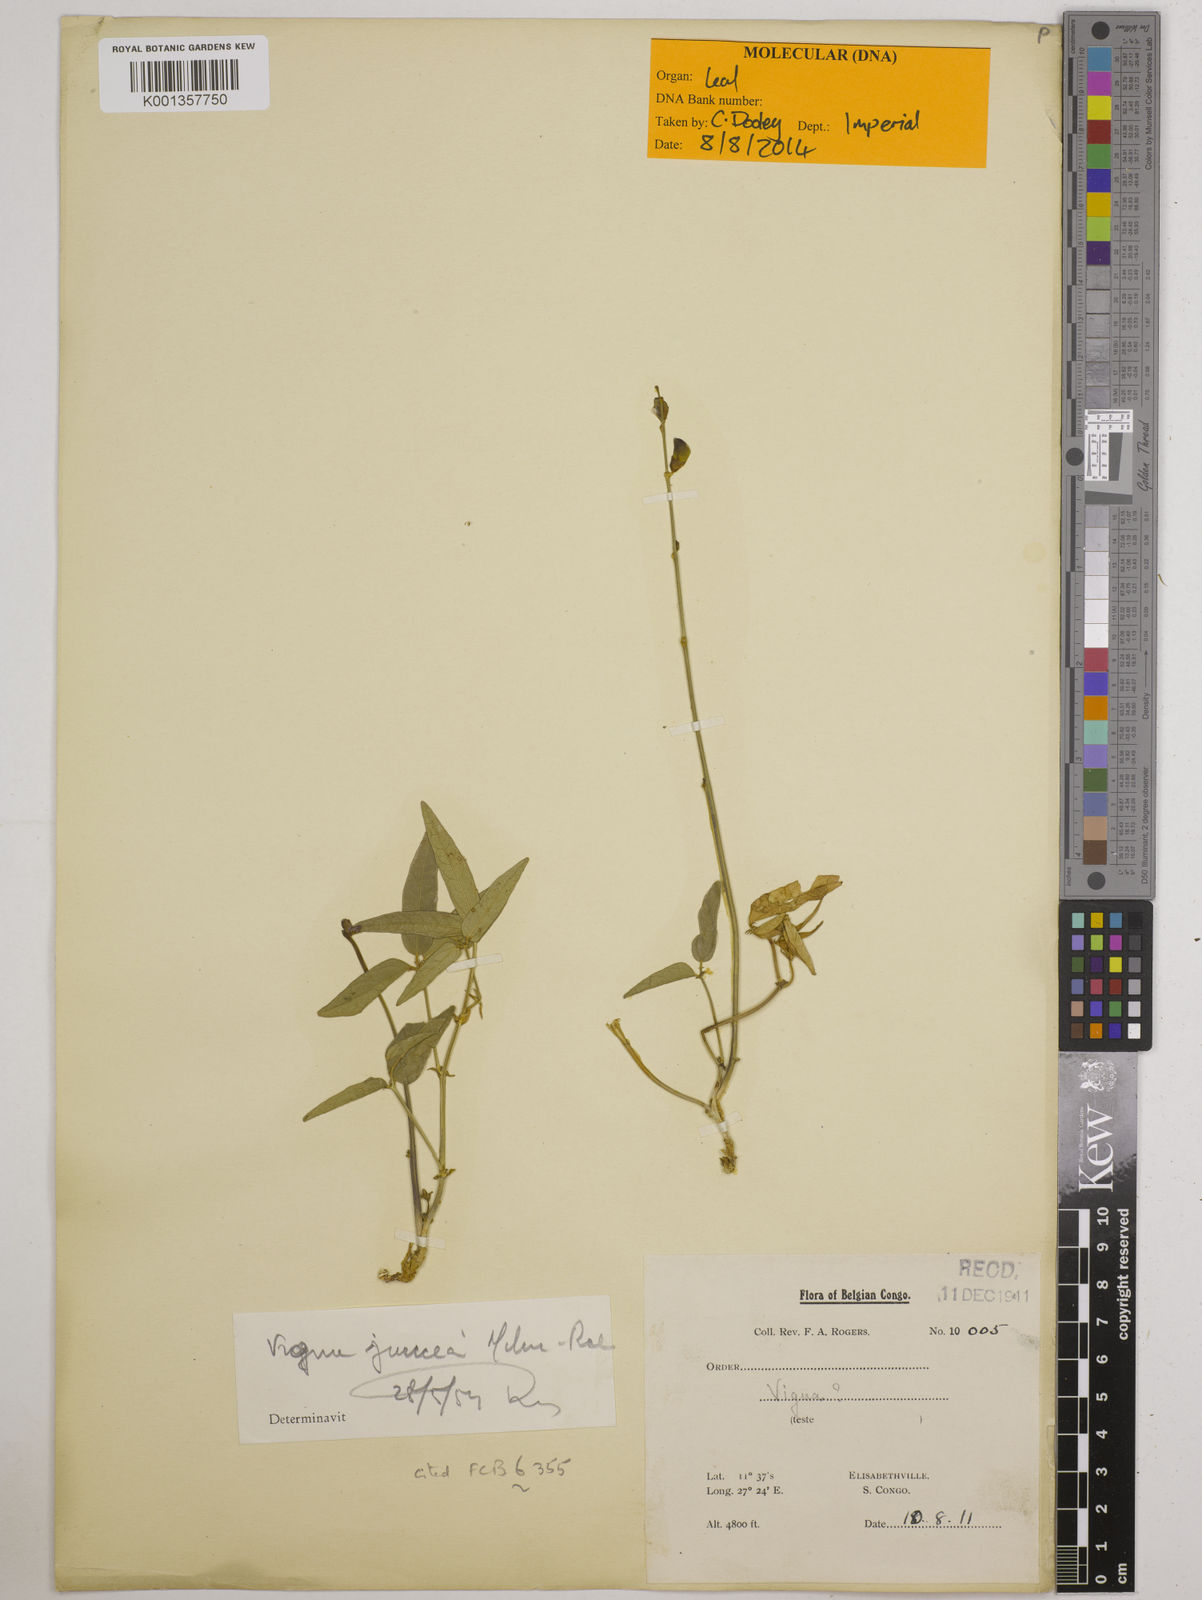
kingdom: Plantae
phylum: Tracheophyta
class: Magnoliopsida
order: Fabales
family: Fabaceae
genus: Vigna
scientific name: Vigna juncea
